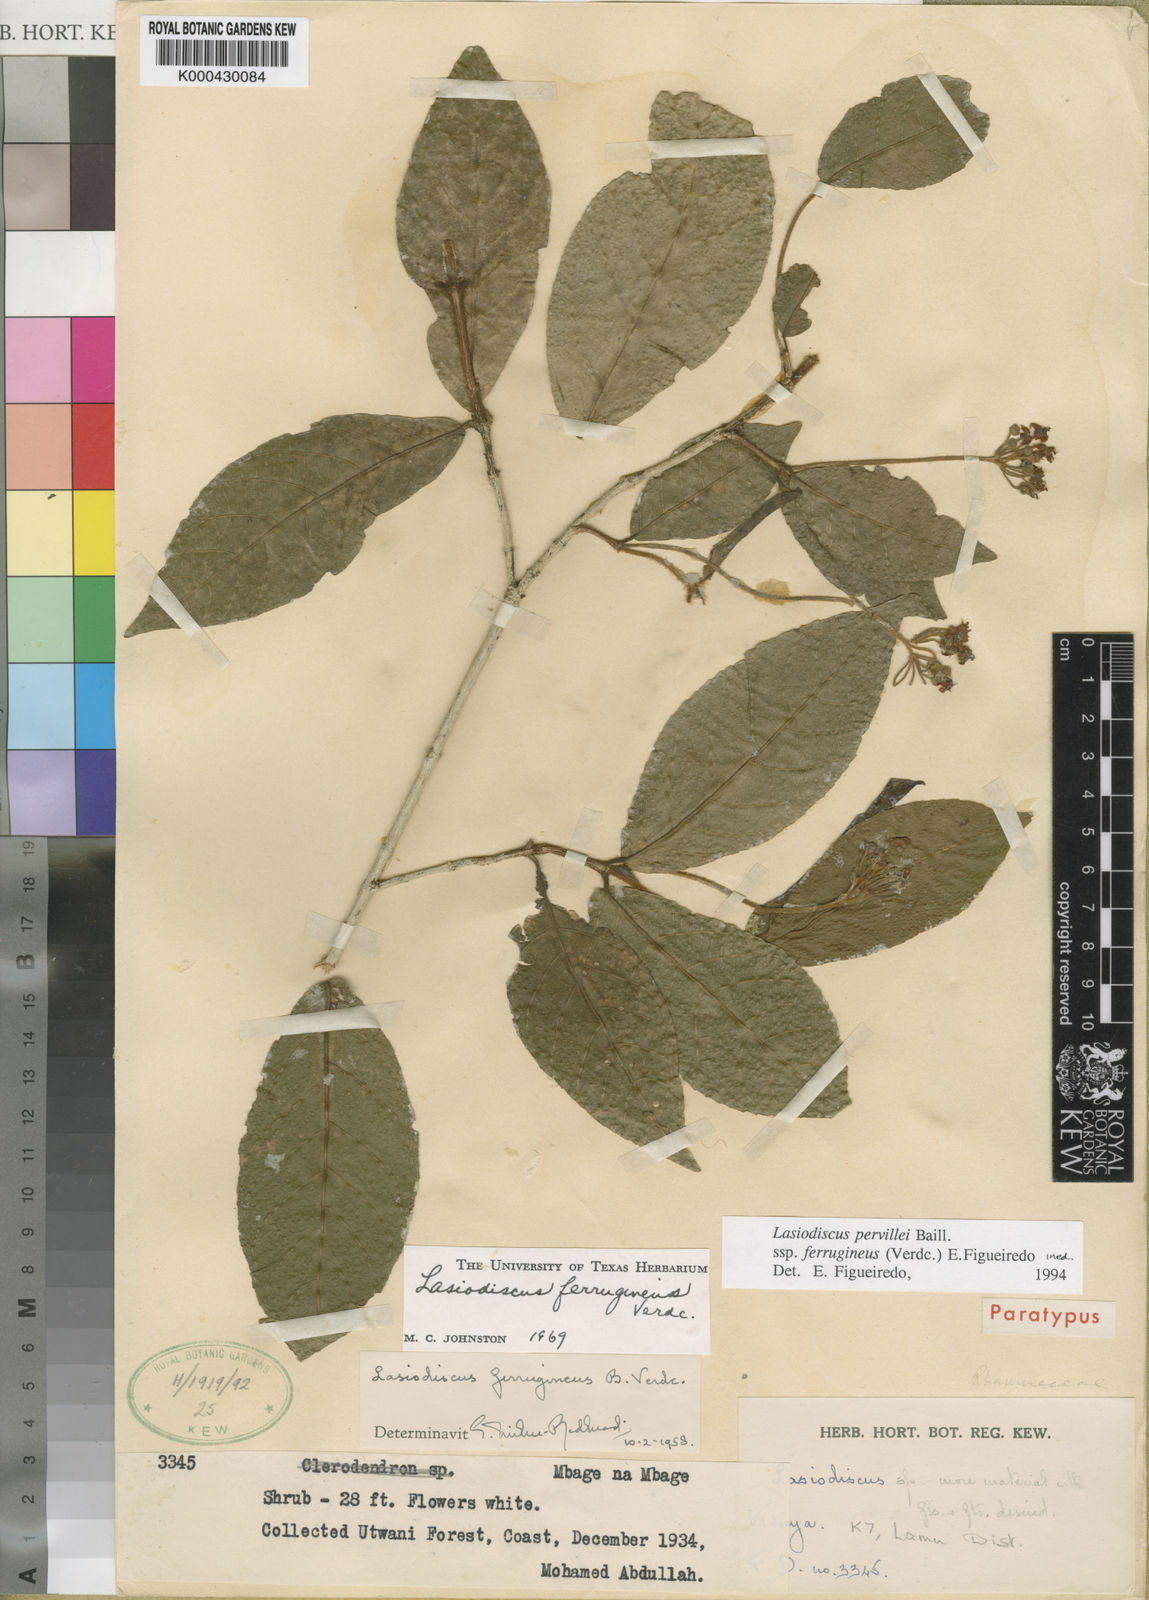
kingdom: Plantae
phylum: Tracheophyta
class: Magnoliopsida
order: Rosales
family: Rhamnaceae
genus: Lasiodiscus
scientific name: Lasiodiscus pervillei
